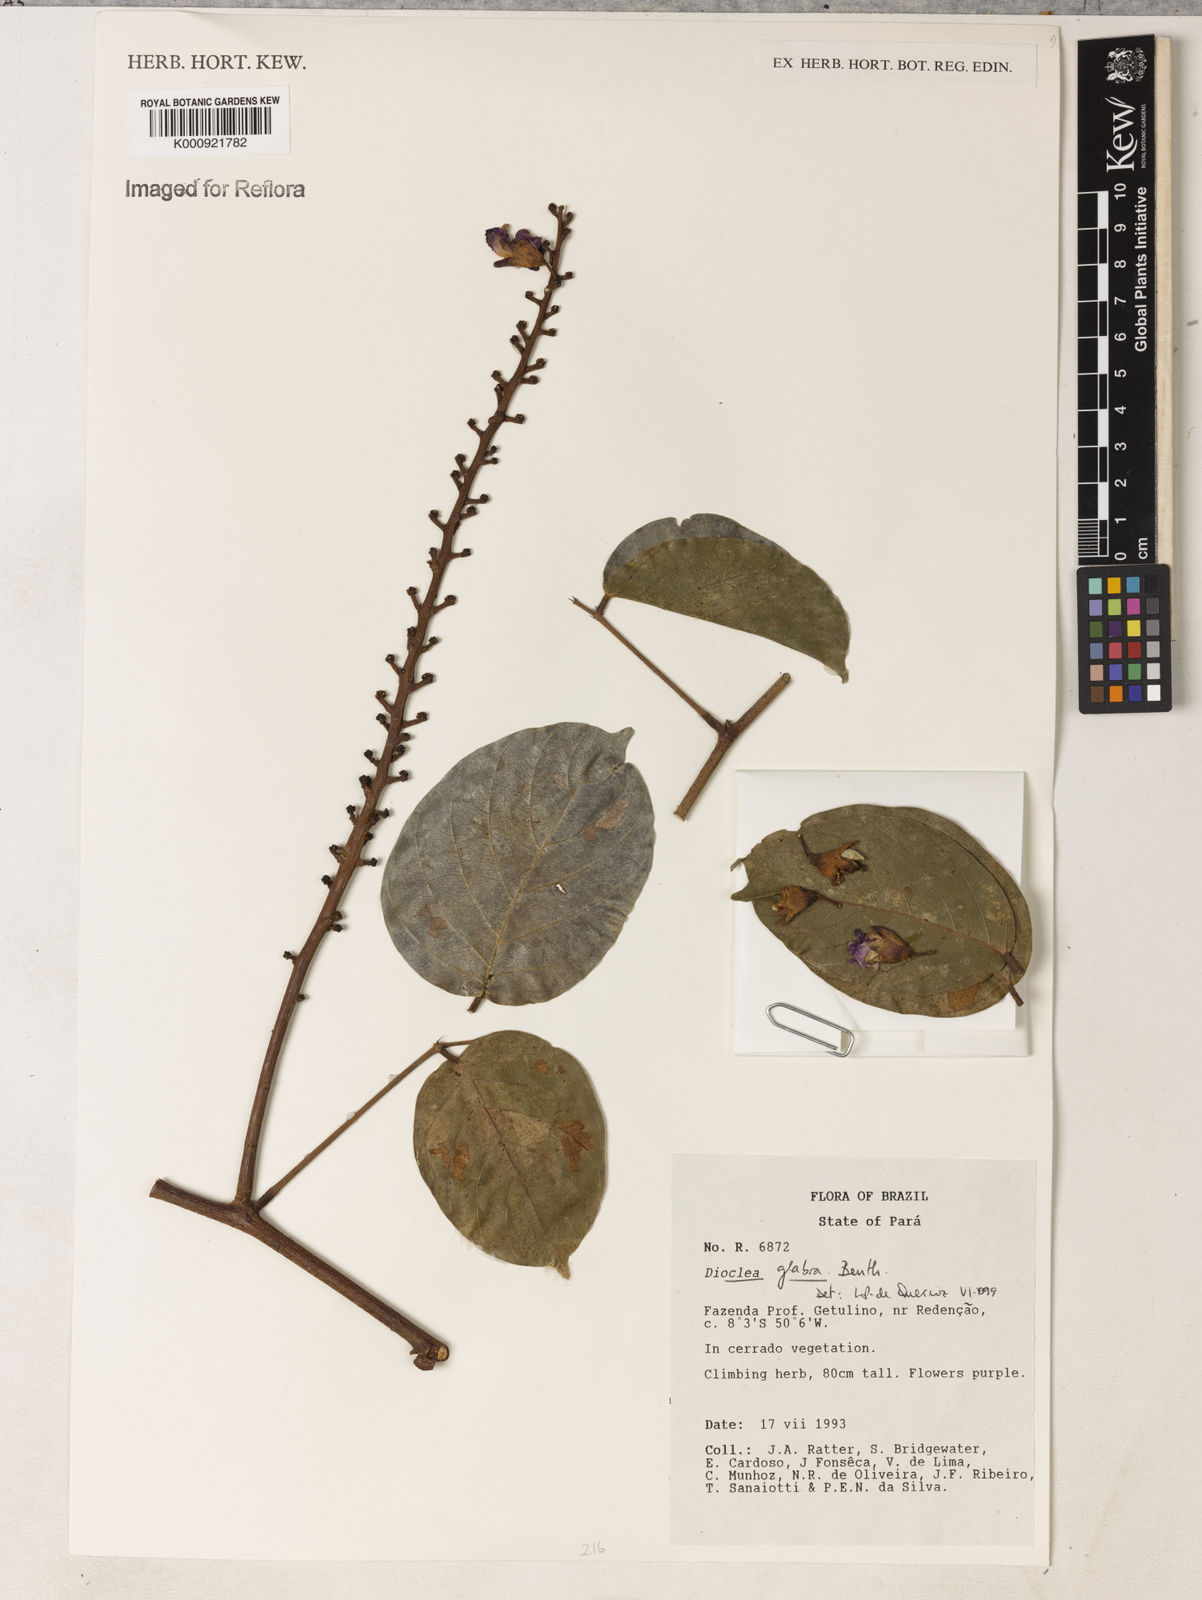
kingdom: Plantae
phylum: Tracheophyta
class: Magnoliopsida
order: Fabales
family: Fabaceae
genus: Macropsychanthus
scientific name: Macropsychanthus glaber
